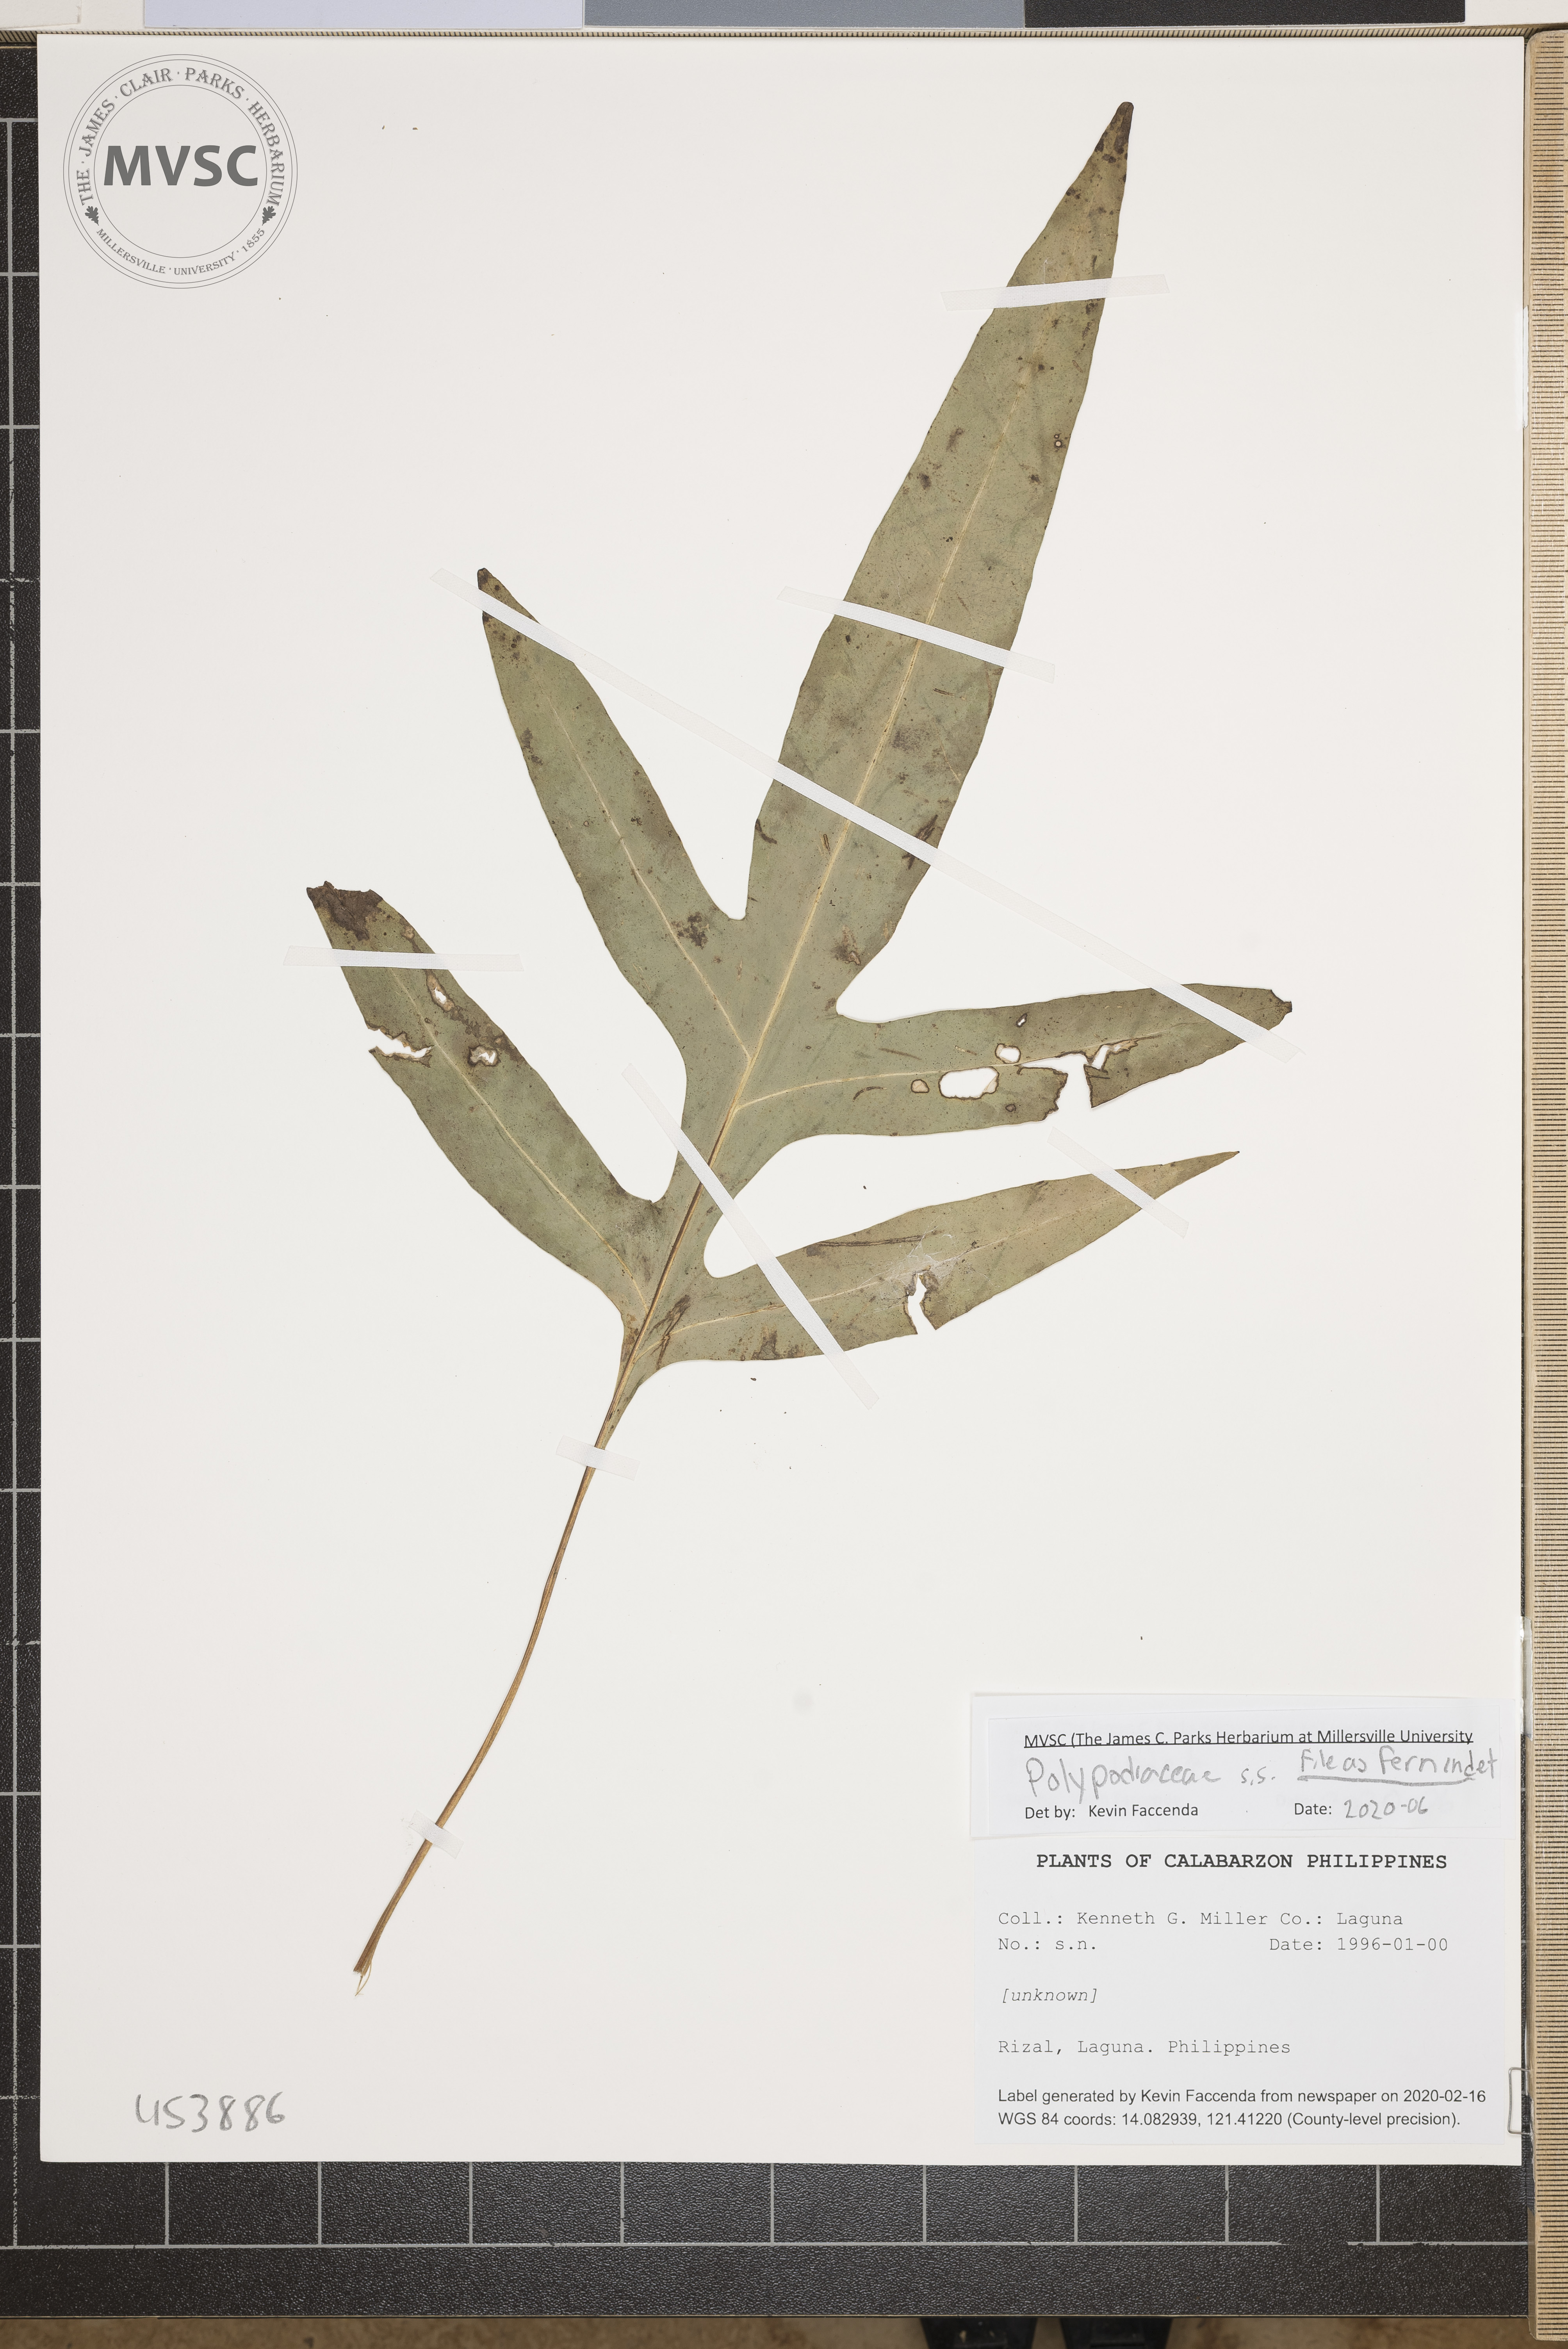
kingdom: Plantae
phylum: Tracheophyta
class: Polypodiopsida
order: Polypodiales
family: Polypodiaceae
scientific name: Polypodiaceae
